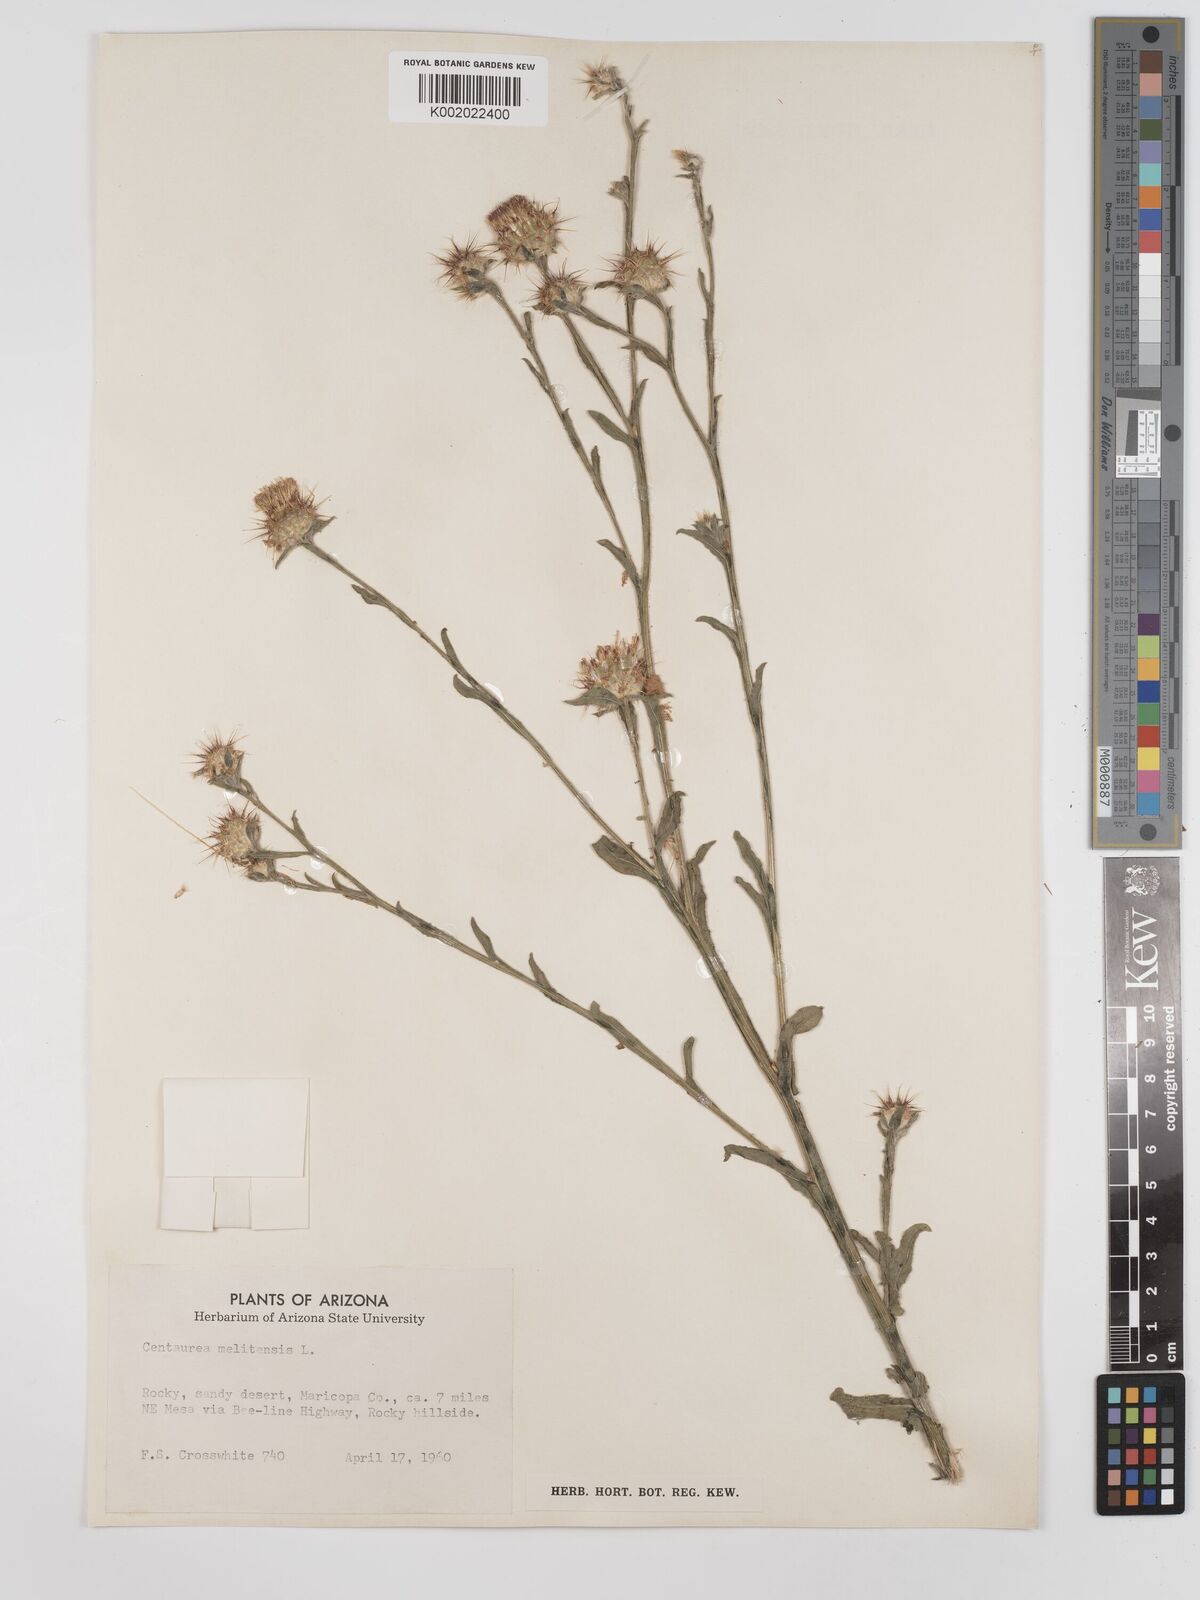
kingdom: Plantae
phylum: Tracheophyta
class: Magnoliopsida
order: Asterales
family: Asteraceae
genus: Centaurea
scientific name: Centaurea melitensis
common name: Maltese star-thistle
